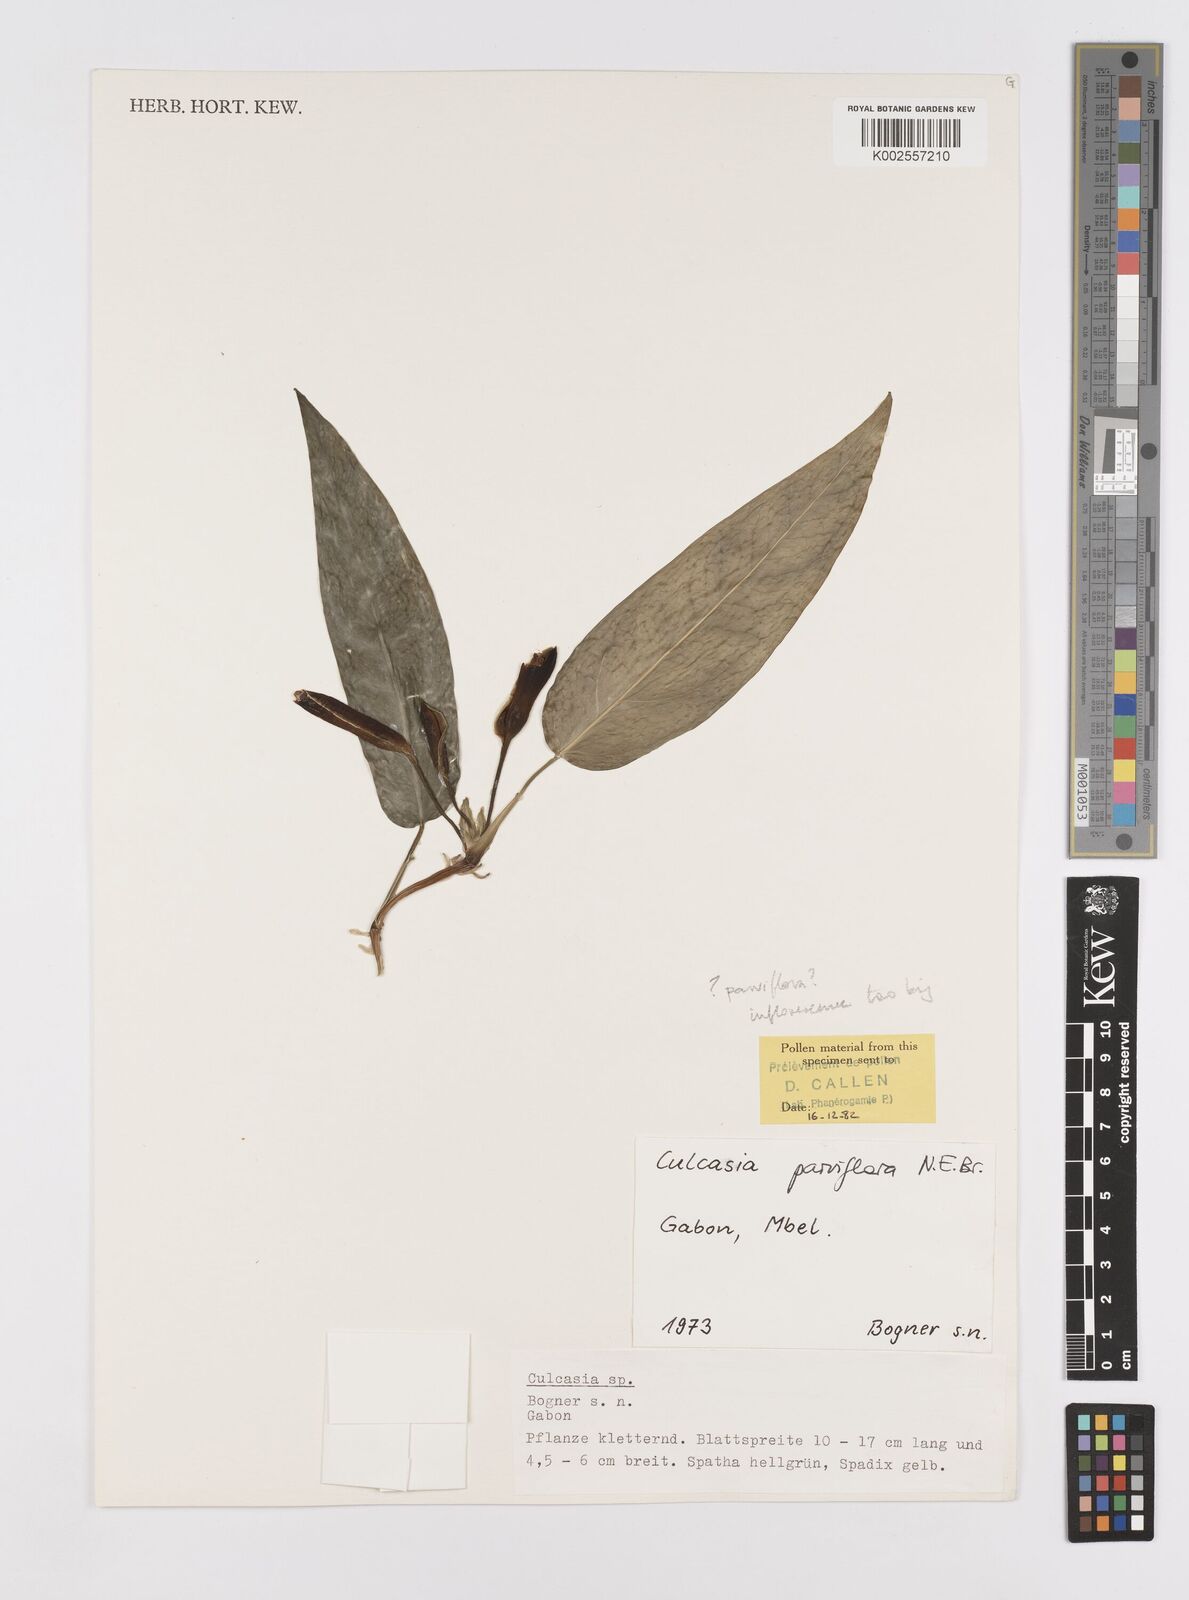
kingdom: Plantae
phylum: Tracheophyta
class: Liliopsida
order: Alismatales
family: Araceae
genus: Culcasia
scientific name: Culcasia
